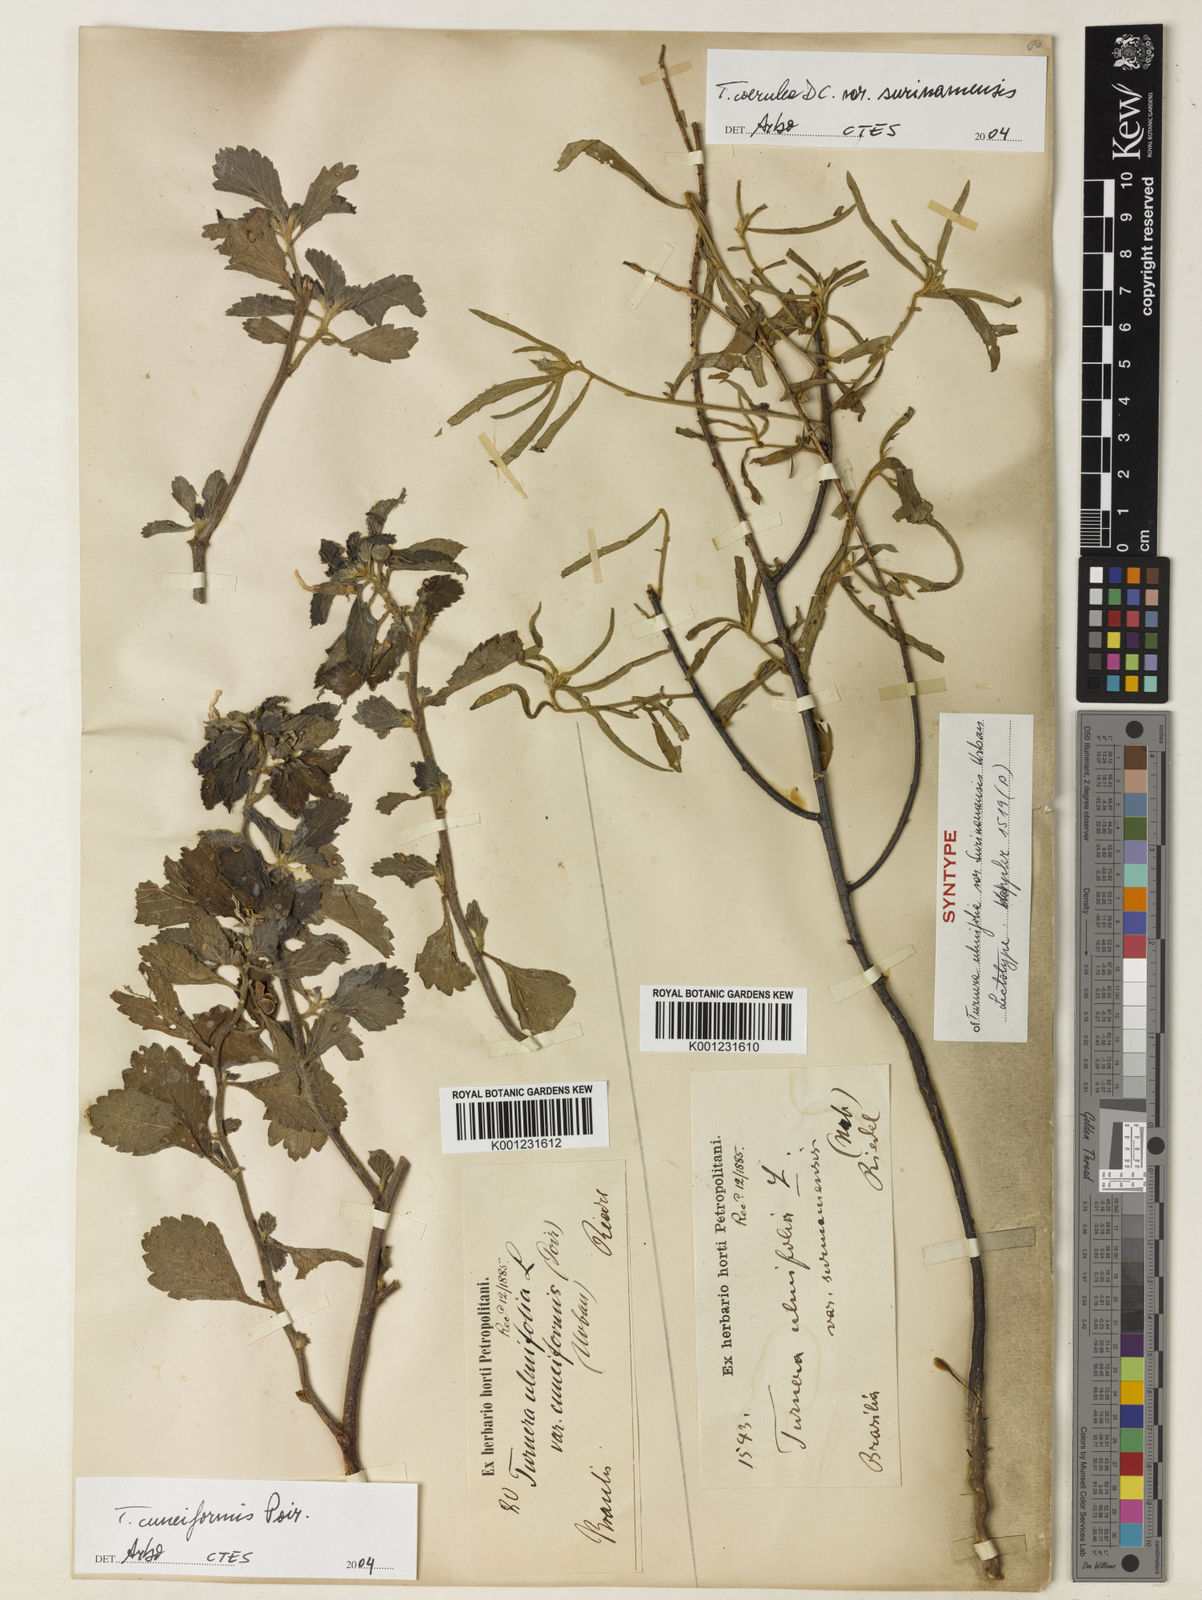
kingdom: Plantae
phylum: Tracheophyta
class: Magnoliopsida
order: Malpighiales
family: Turneraceae
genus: Turnera
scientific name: Turnera coerulea
